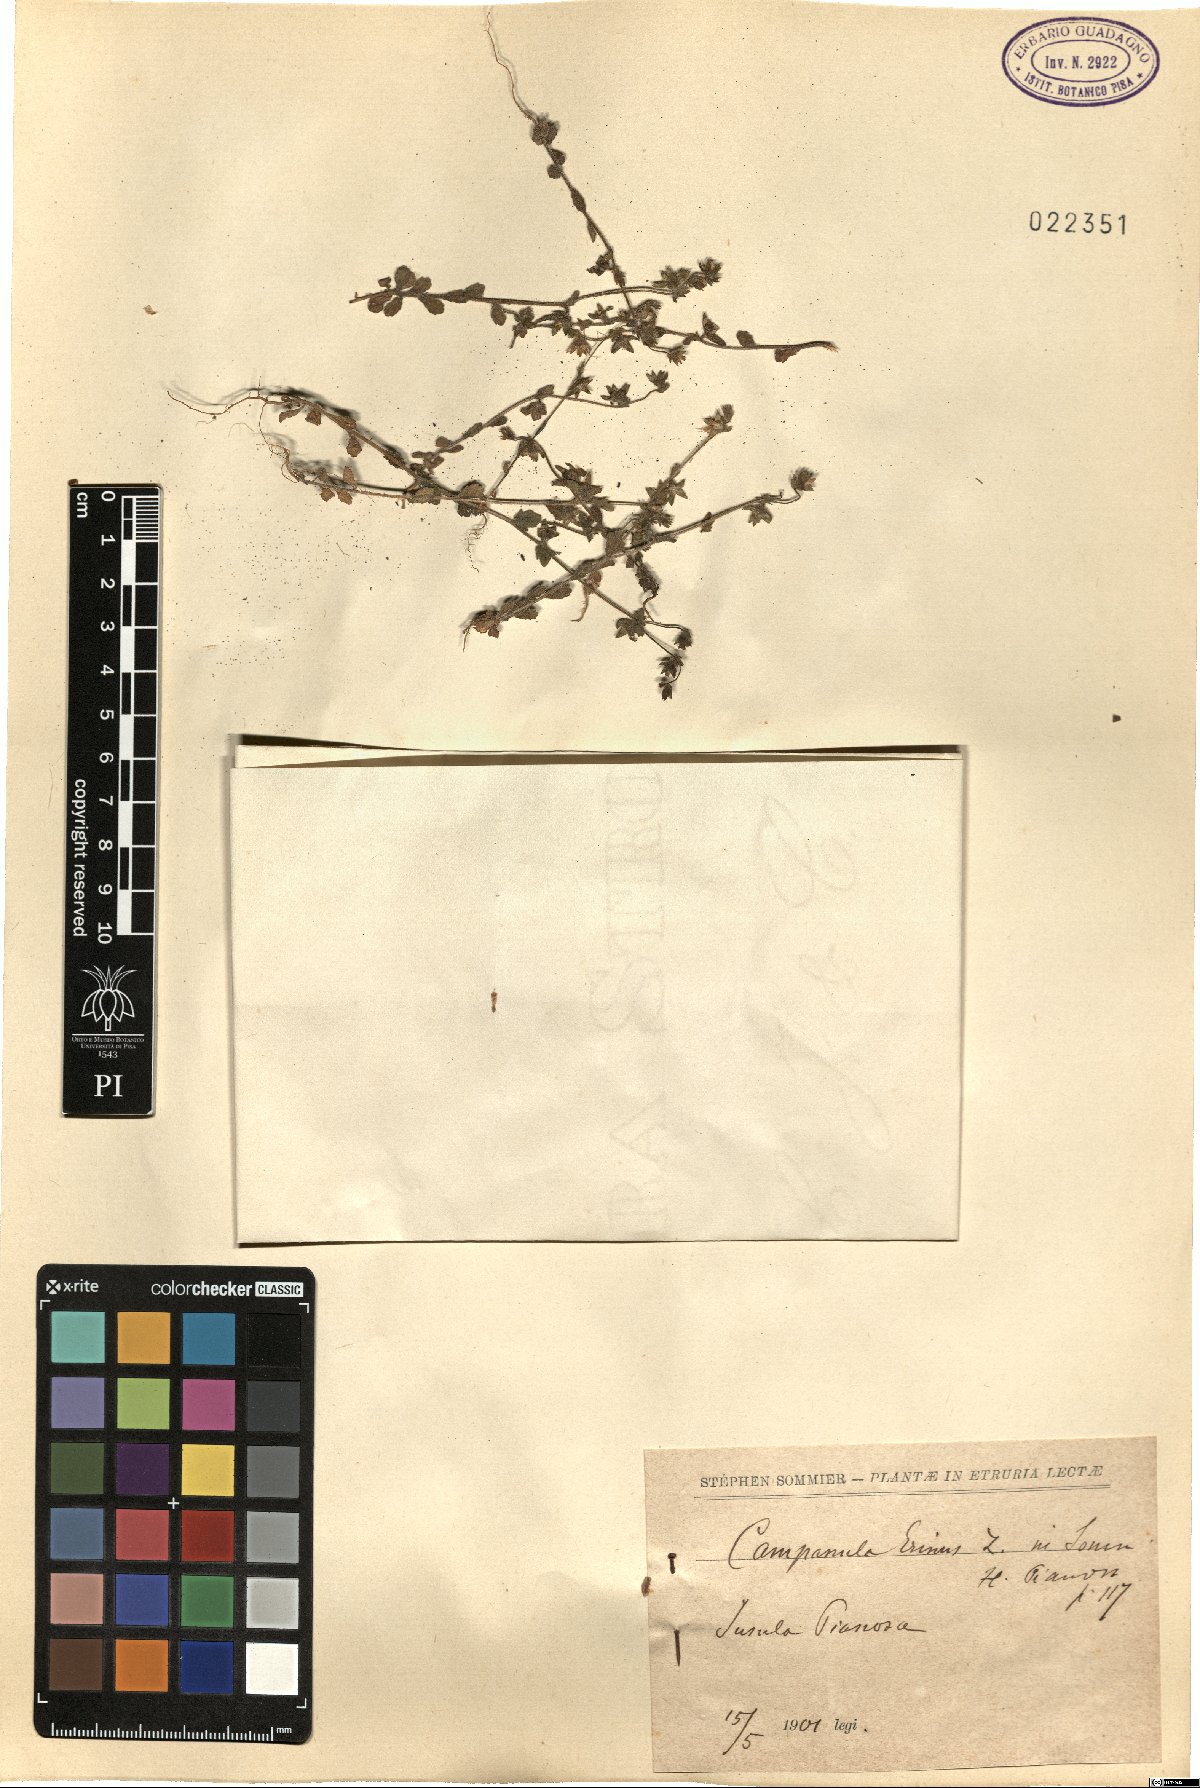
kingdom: Plantae
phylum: Tracheophyta
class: Magnoliopsida
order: Asterales
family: Campanulaceae
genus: Campanula
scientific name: Campanula erinus
